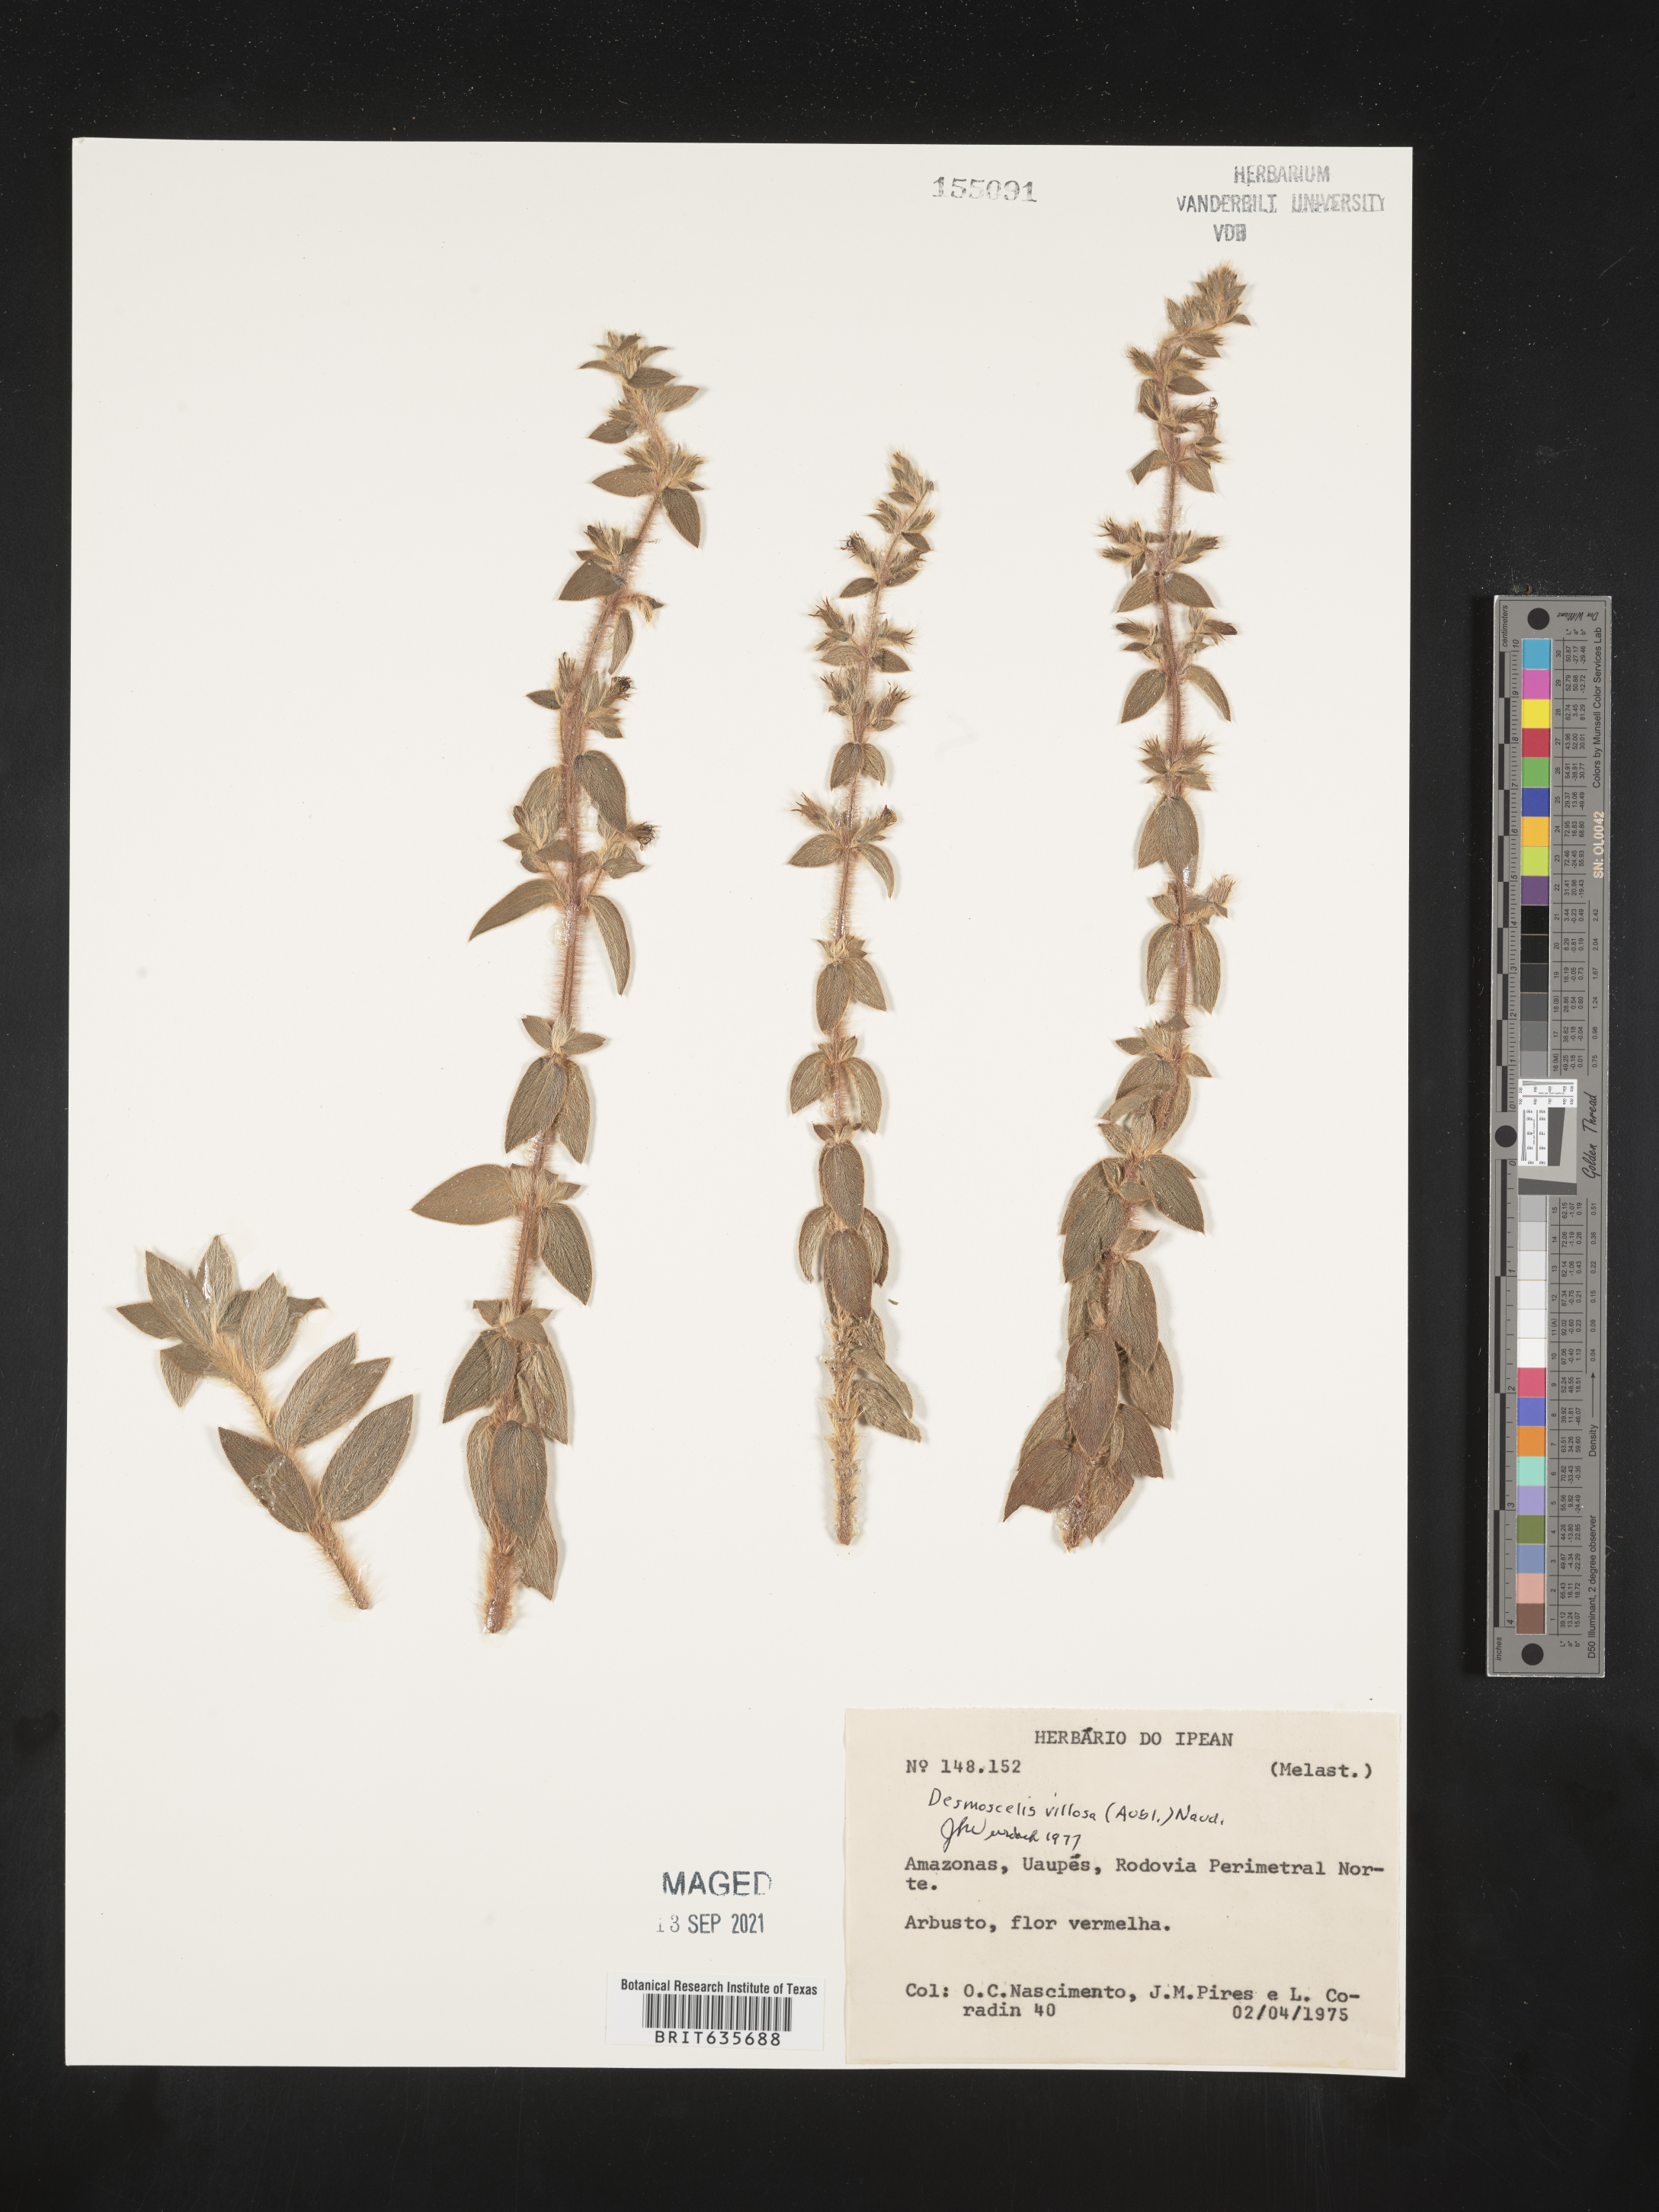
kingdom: Plantae
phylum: Tracheophyta
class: Magnoliopsida
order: Myrtales
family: Melastomataceae
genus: Desmoscelis
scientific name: Desmoscelis
